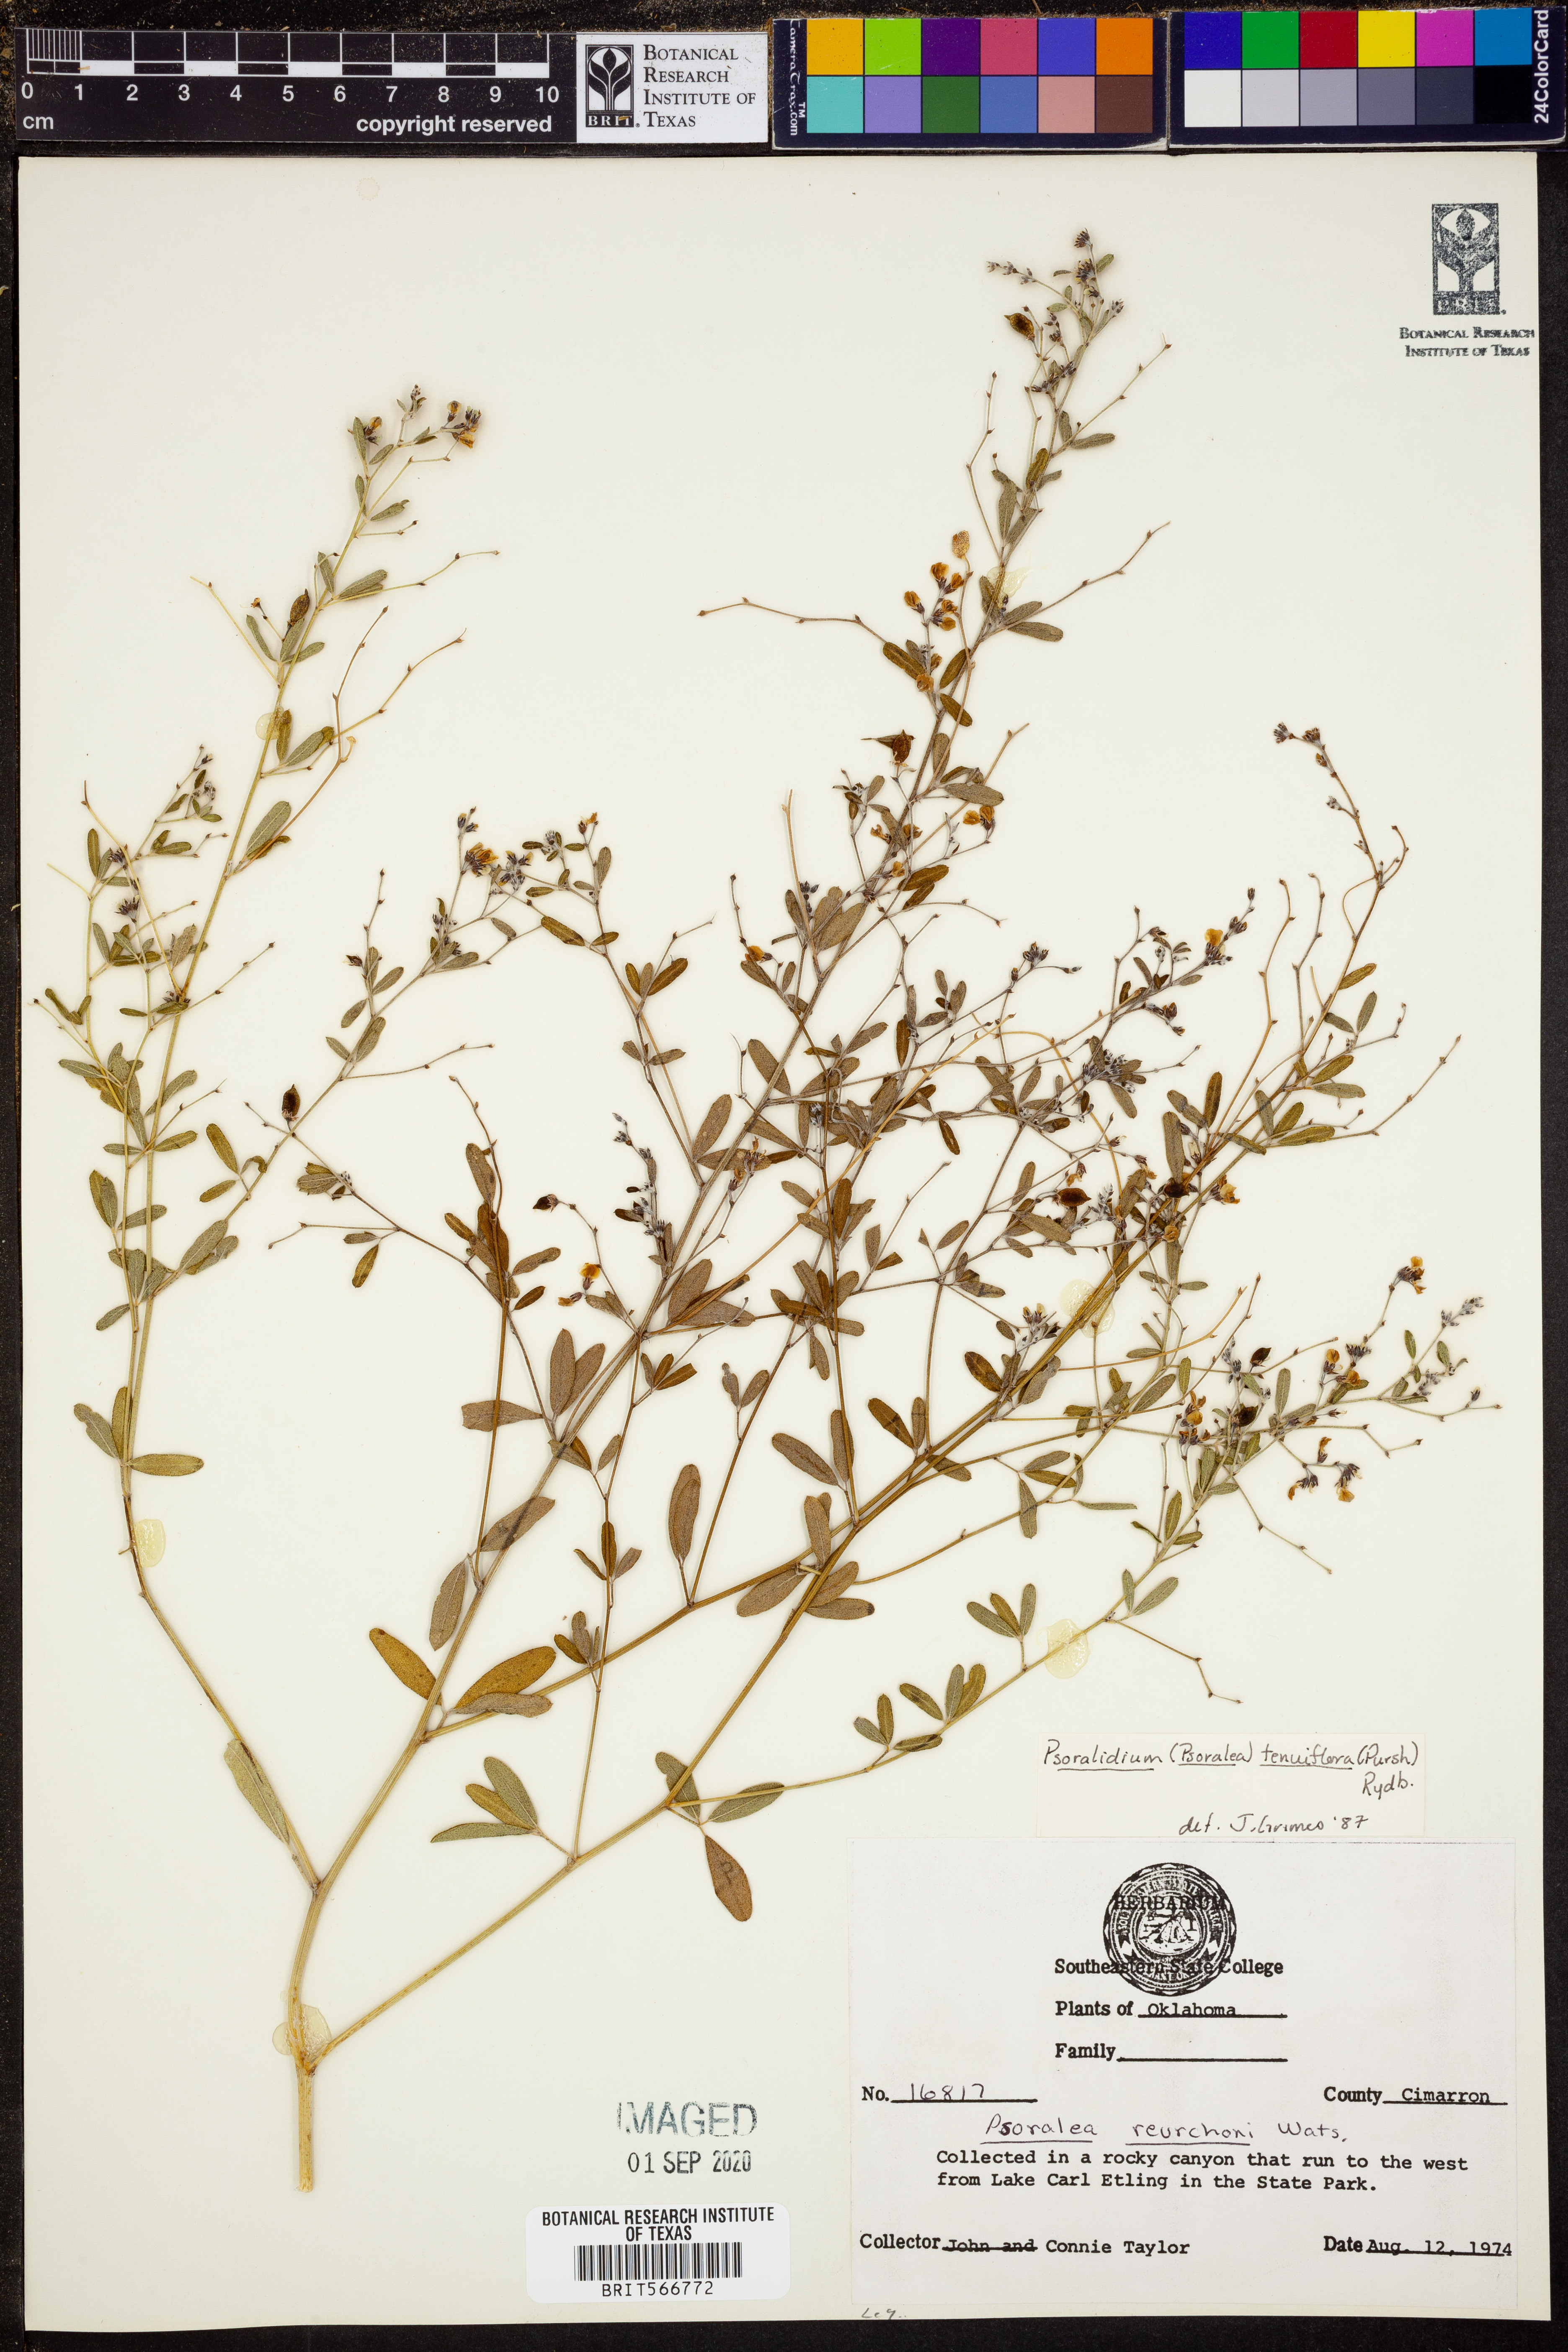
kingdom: Plantae
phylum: Tracheophyta
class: Magnoliopsida
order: Fabales
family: Fabaceae
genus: Pediomelum
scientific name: Pediomelum tenuiflorum
